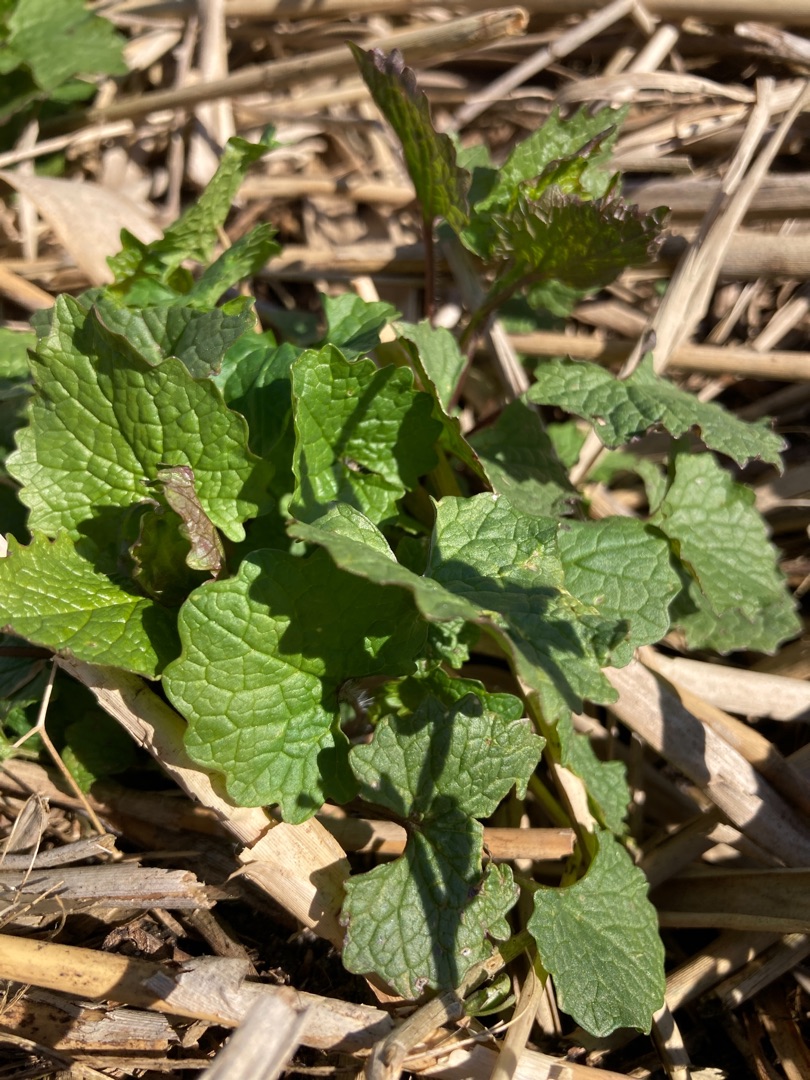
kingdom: Plantae
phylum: Tracheophyta
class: Magnoliopsida
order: Brassicales
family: Brassicaceae
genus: Alliaria
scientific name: Alliaria petiolata
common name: Løgkarse
